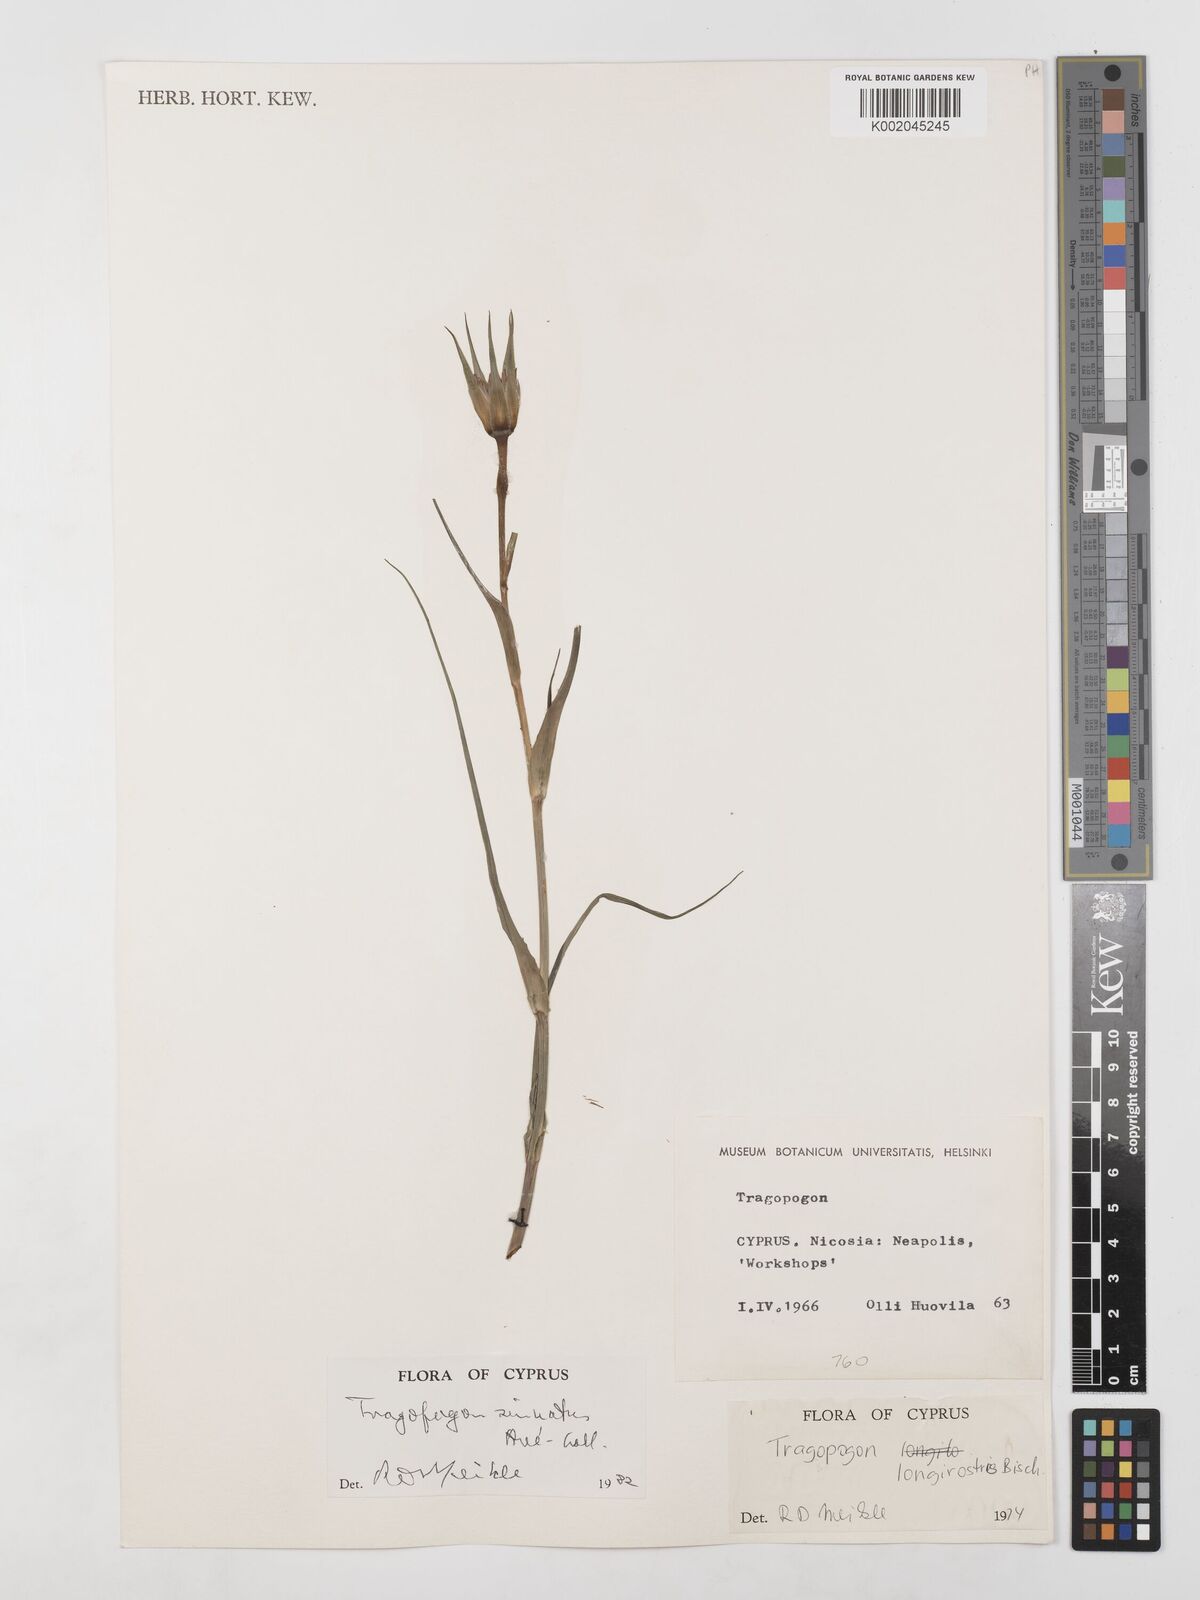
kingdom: Plantae
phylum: Tracheophyta
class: Magnoliopsida
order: Asterales
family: Asteraceae
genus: Tragopogon
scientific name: Tragopogon coelesyriacus
